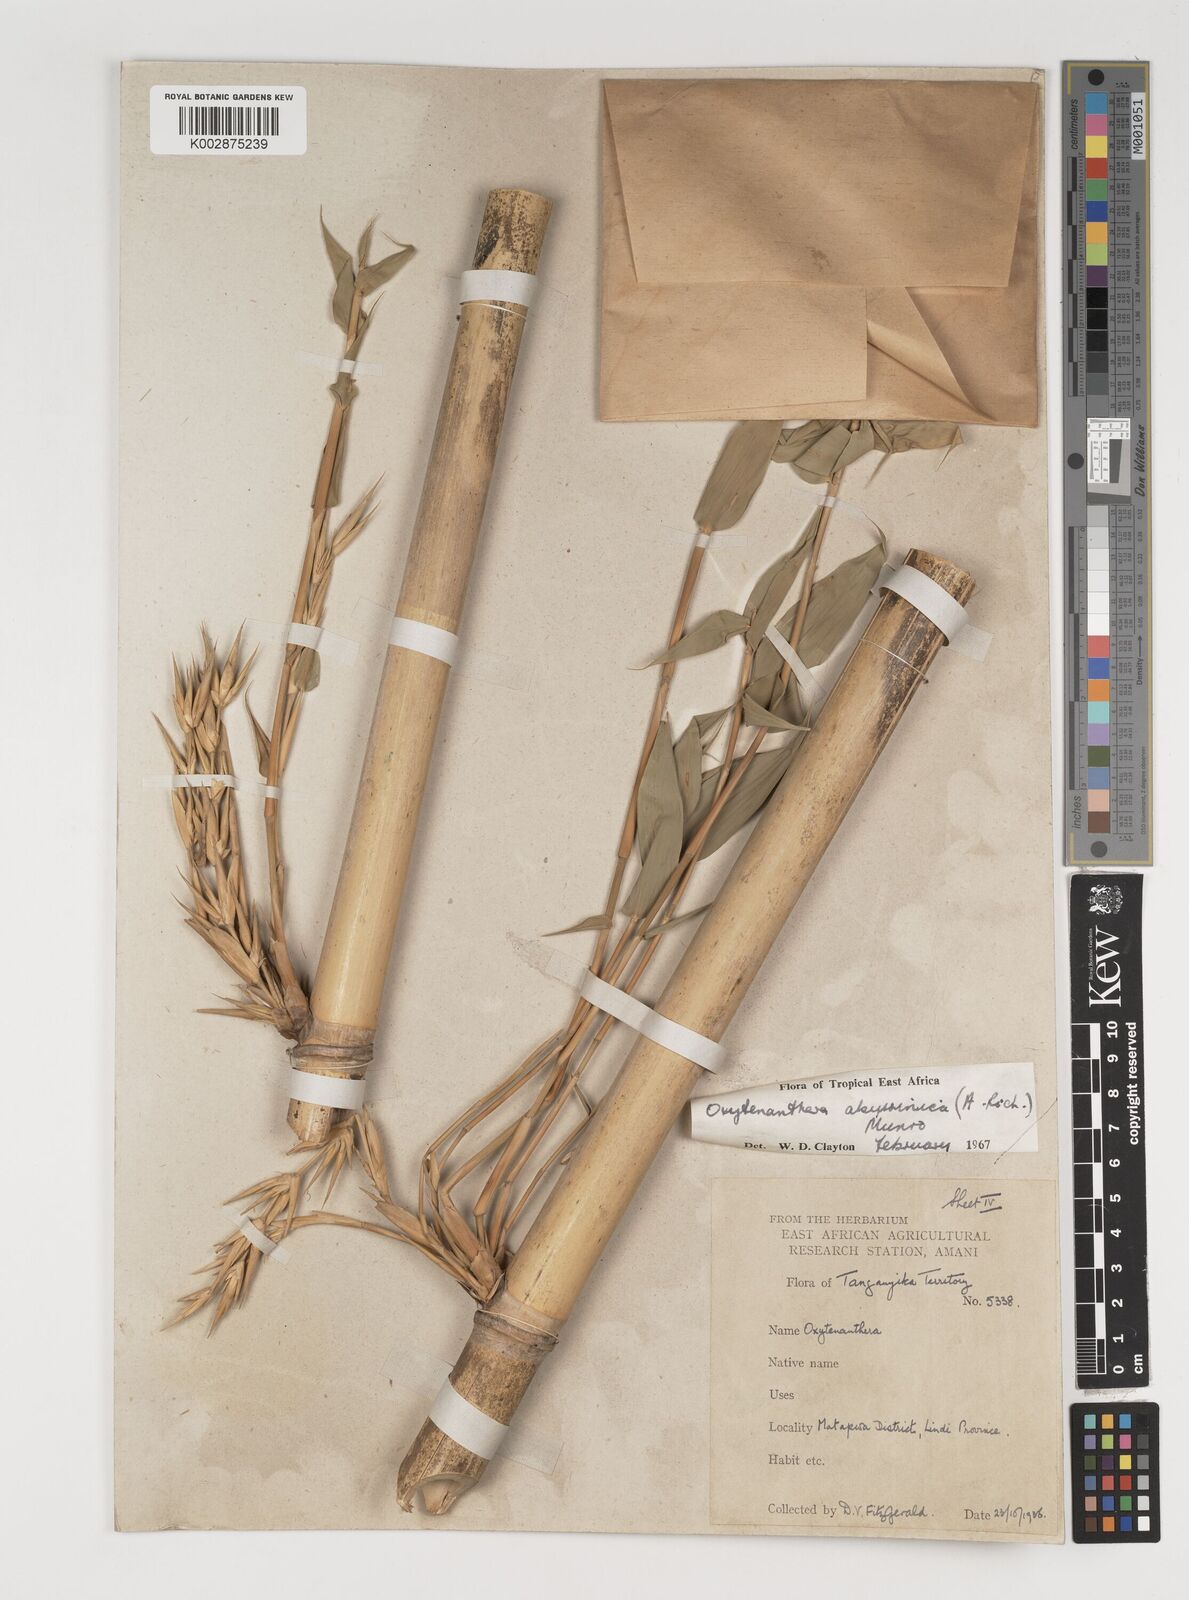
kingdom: Plantae
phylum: Tracheophyta
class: Liliopsida
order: Poales
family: Poaceae
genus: Oxytenanthera
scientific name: Oxytenanthera
